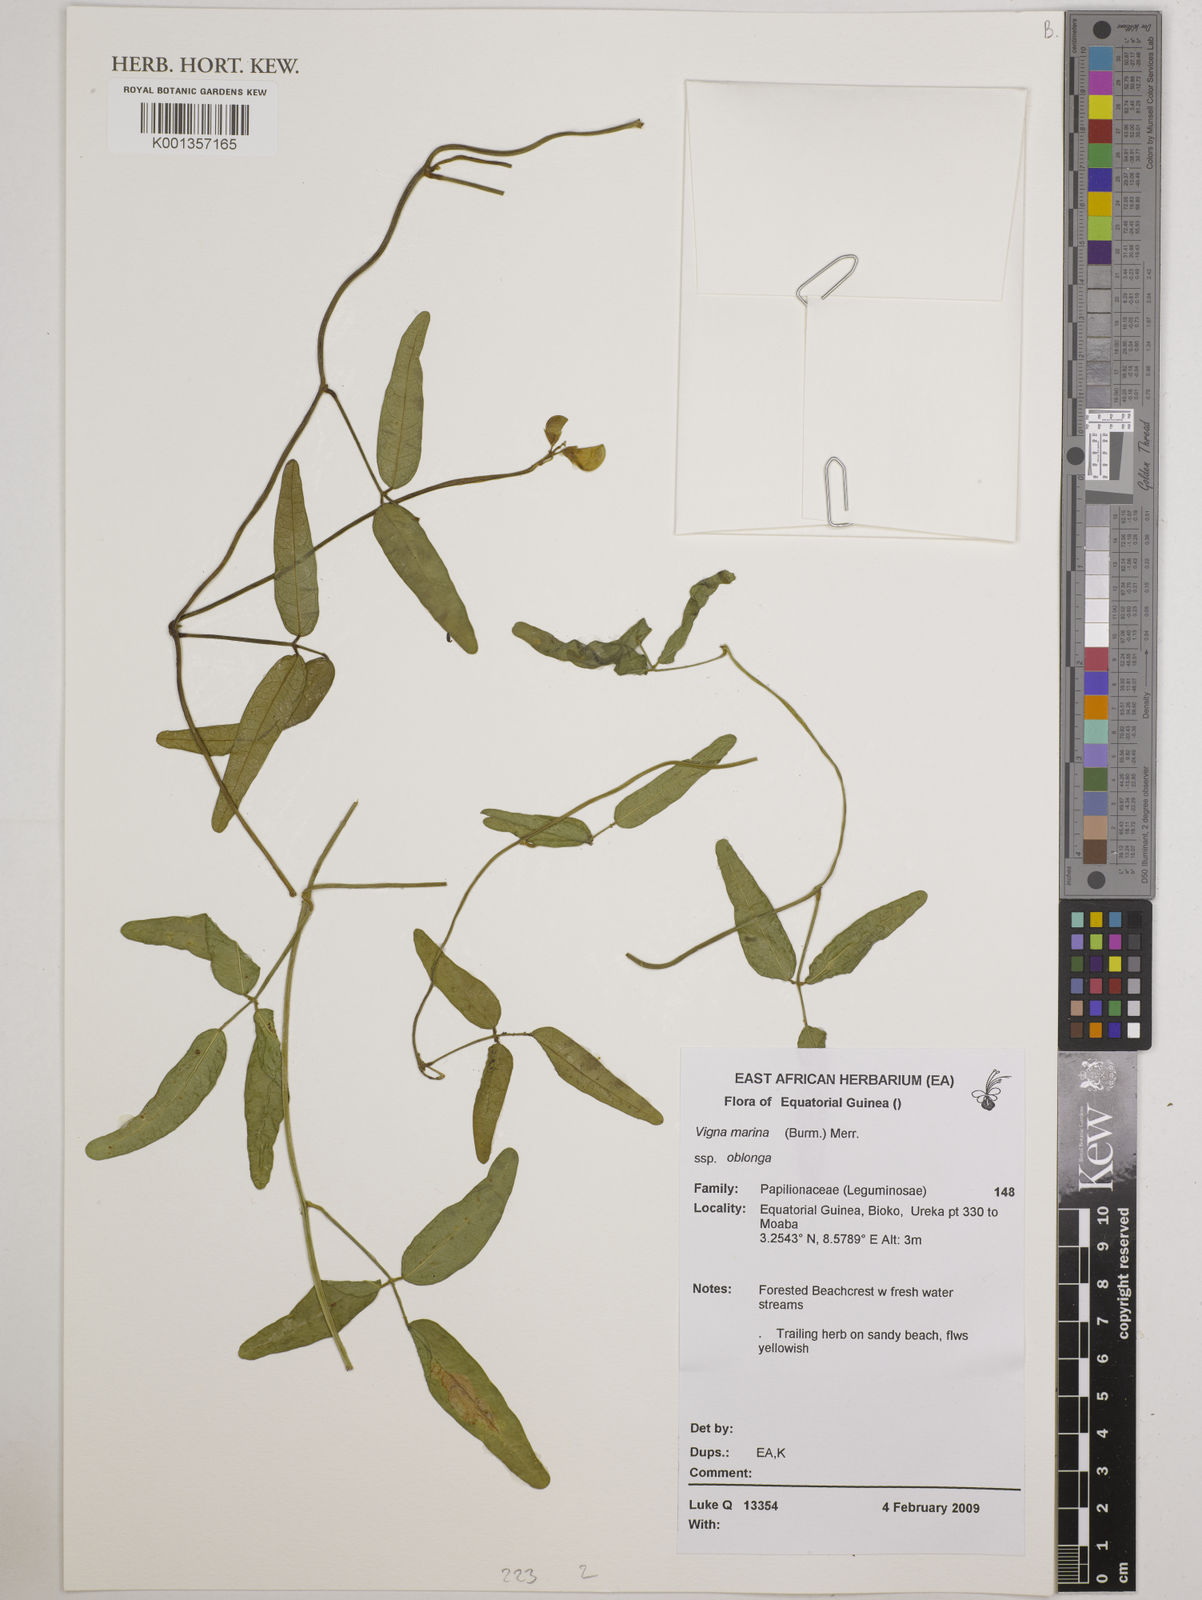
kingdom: Plantae
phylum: Tracheophyta
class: Magnoliopsida
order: Fabales
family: Fabaceae
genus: Vigna
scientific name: Vigna marina
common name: Dune-bean
